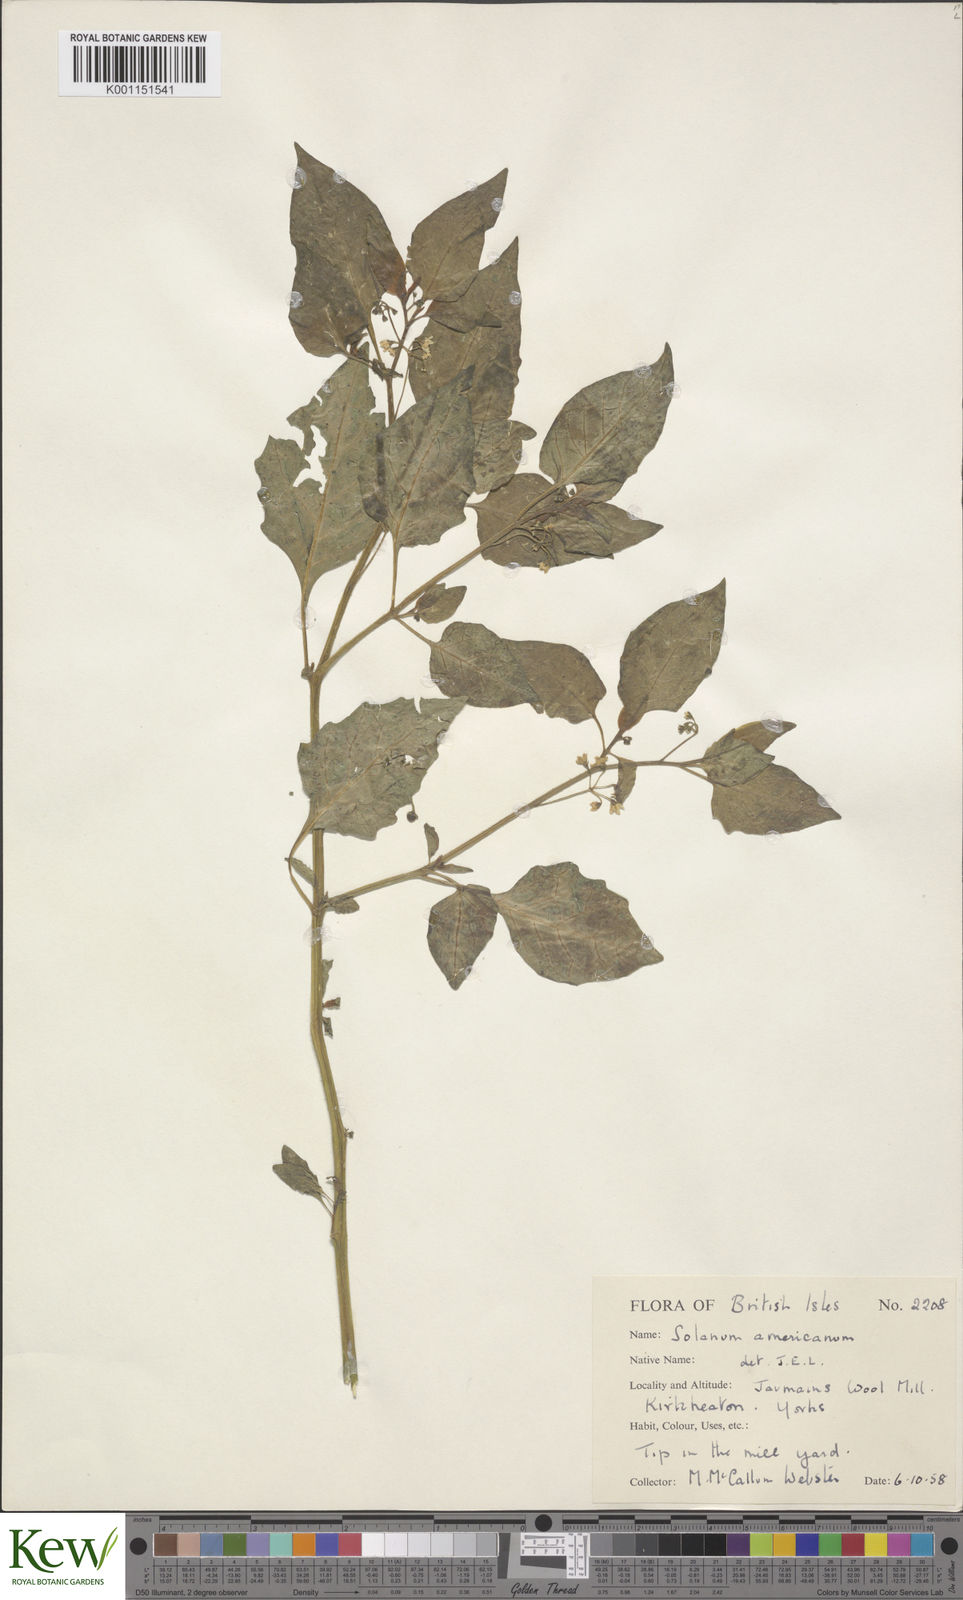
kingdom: Plantae
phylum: Tracheophyta
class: Magnoliopsida
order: Solanales
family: Solanaceae
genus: Solanum
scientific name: Solanum americanum
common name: American black nightshade
